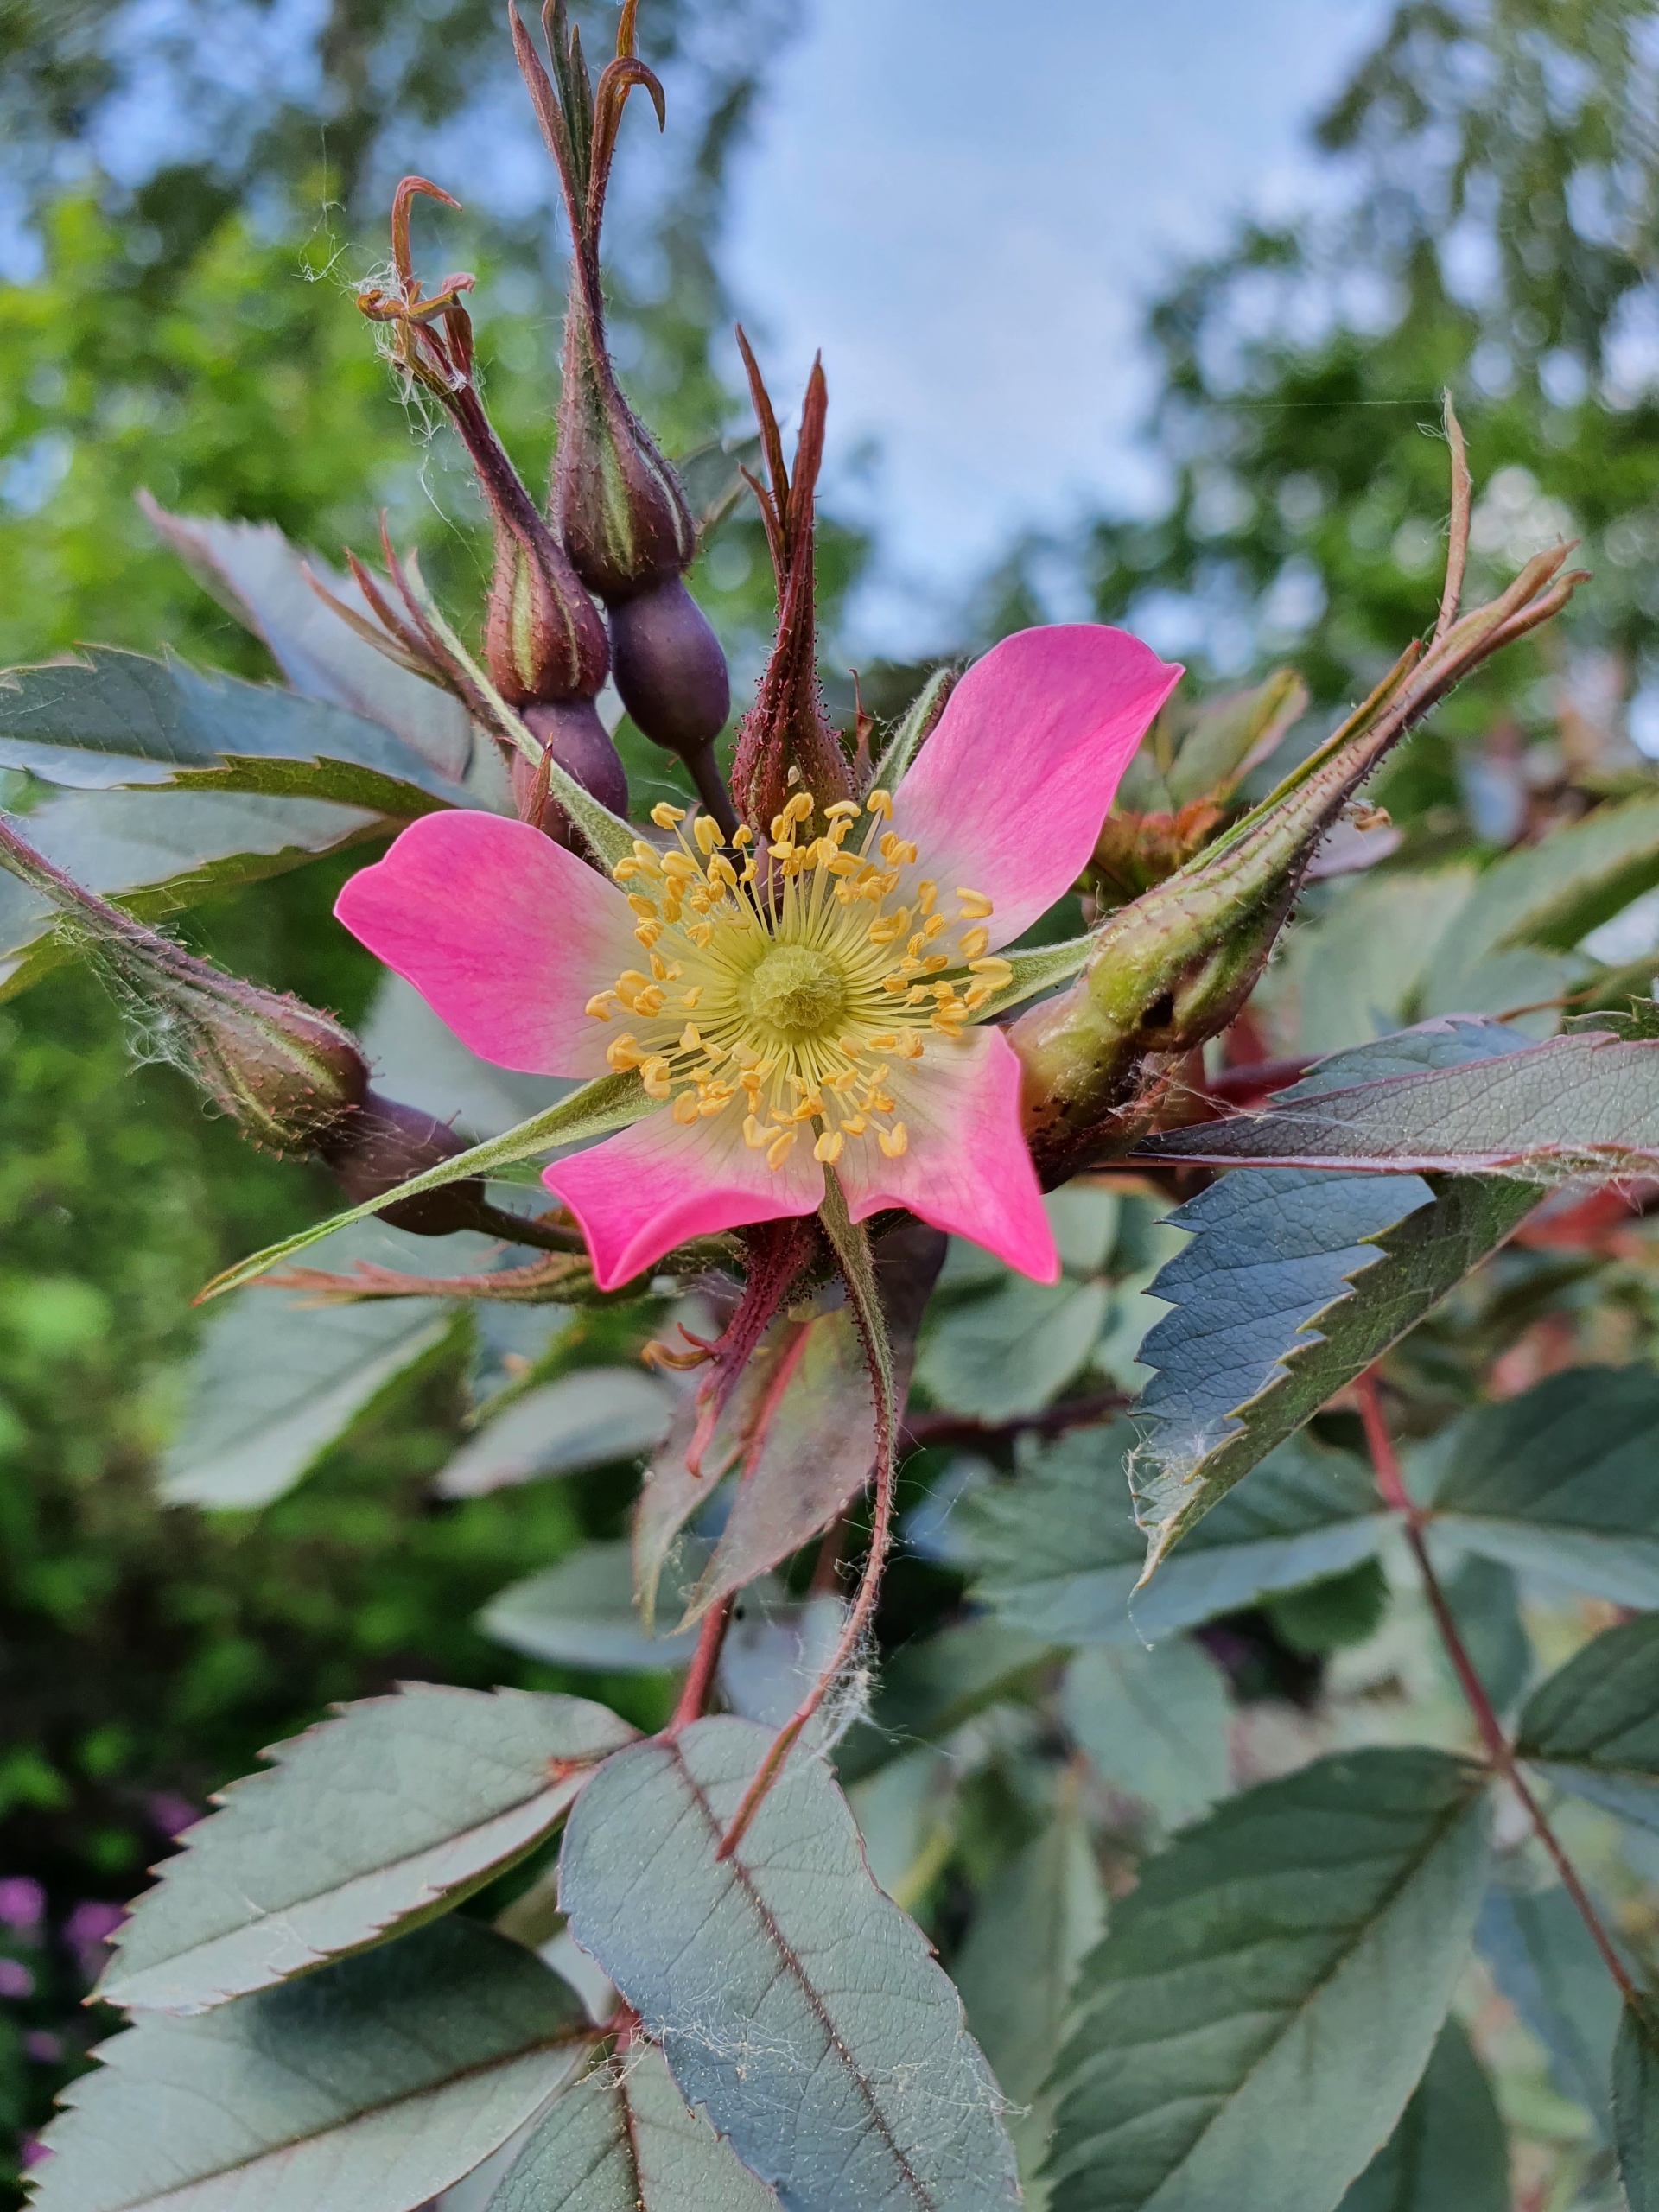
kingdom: Plantae
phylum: Tracheophyta
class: Magnoliopsida
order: Rosales
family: Rosaceae
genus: Rosa
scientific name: Rosa glauca
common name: Kobber-rose
